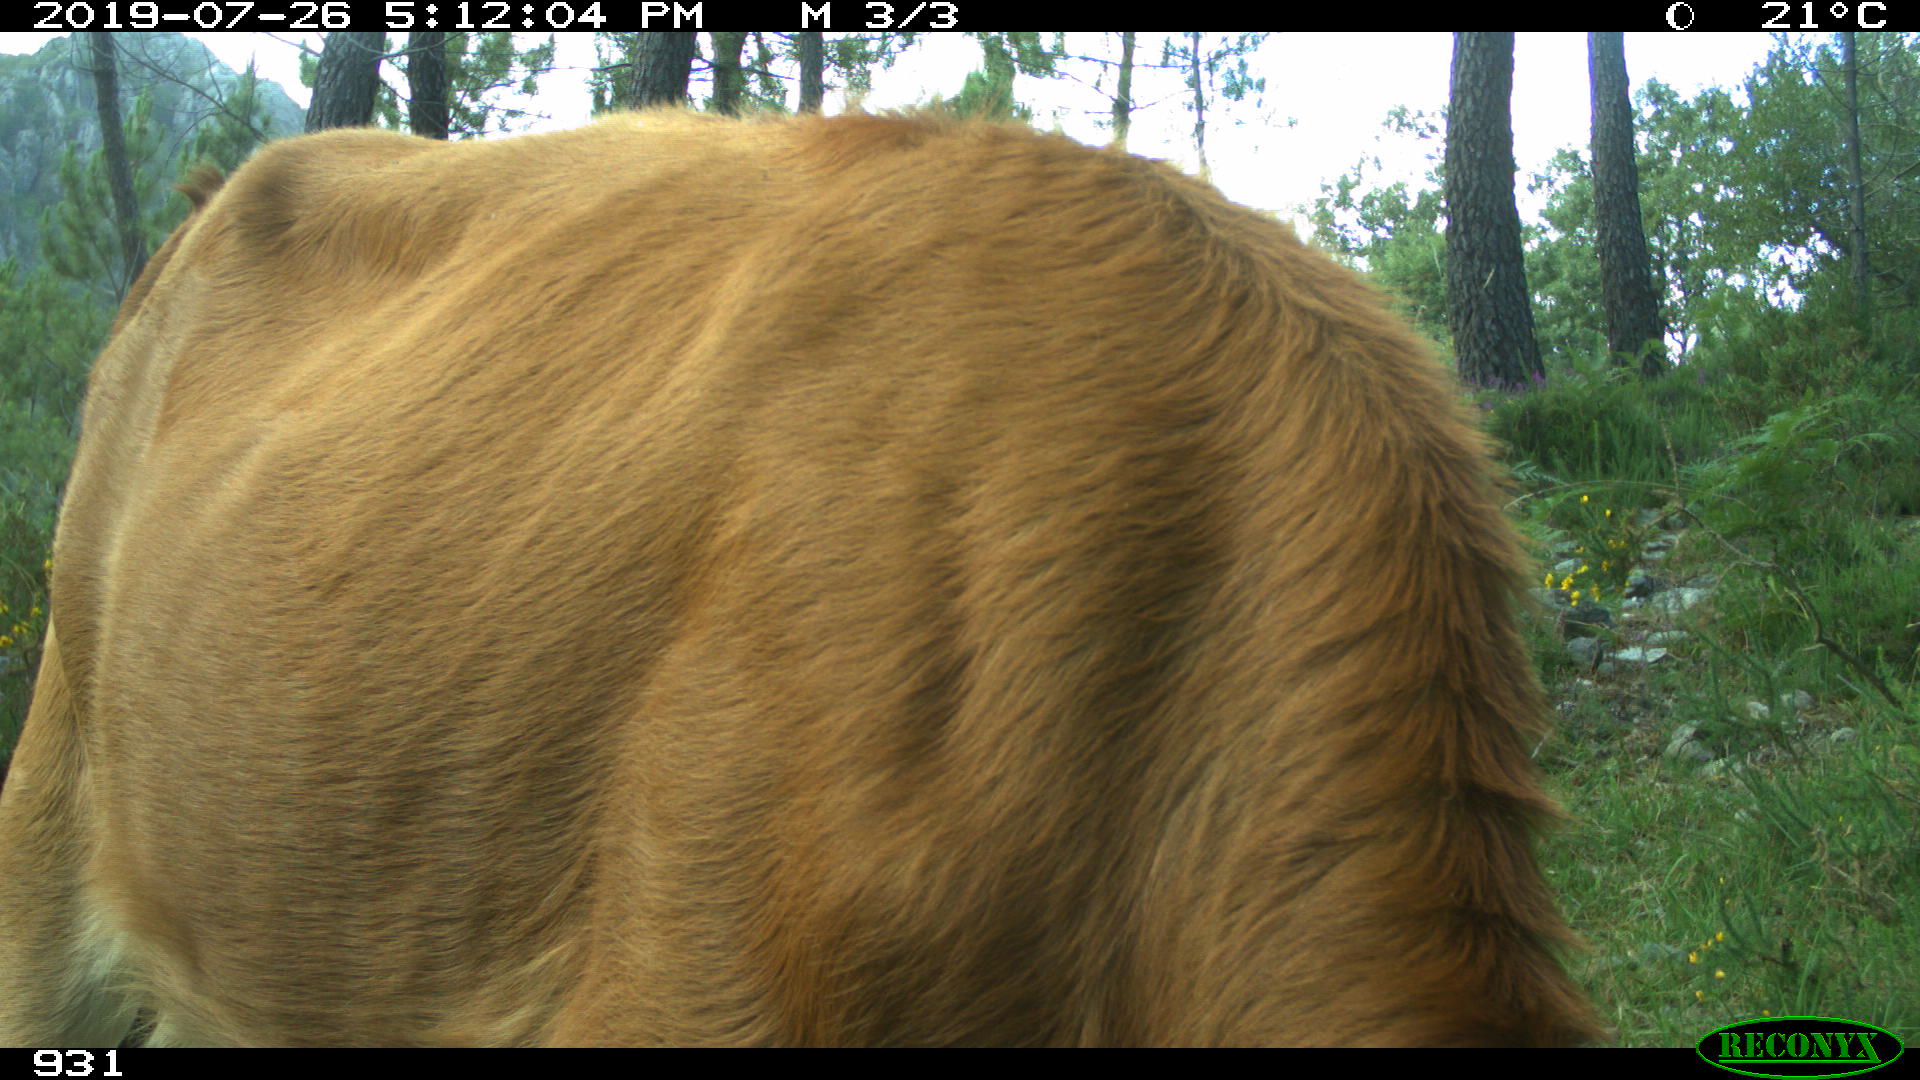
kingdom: Animalia
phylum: Chordata
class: Mammalia
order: Artiodactyla
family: Bovidae
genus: Bos
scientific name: Bos taurus
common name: Domesticated cattle
